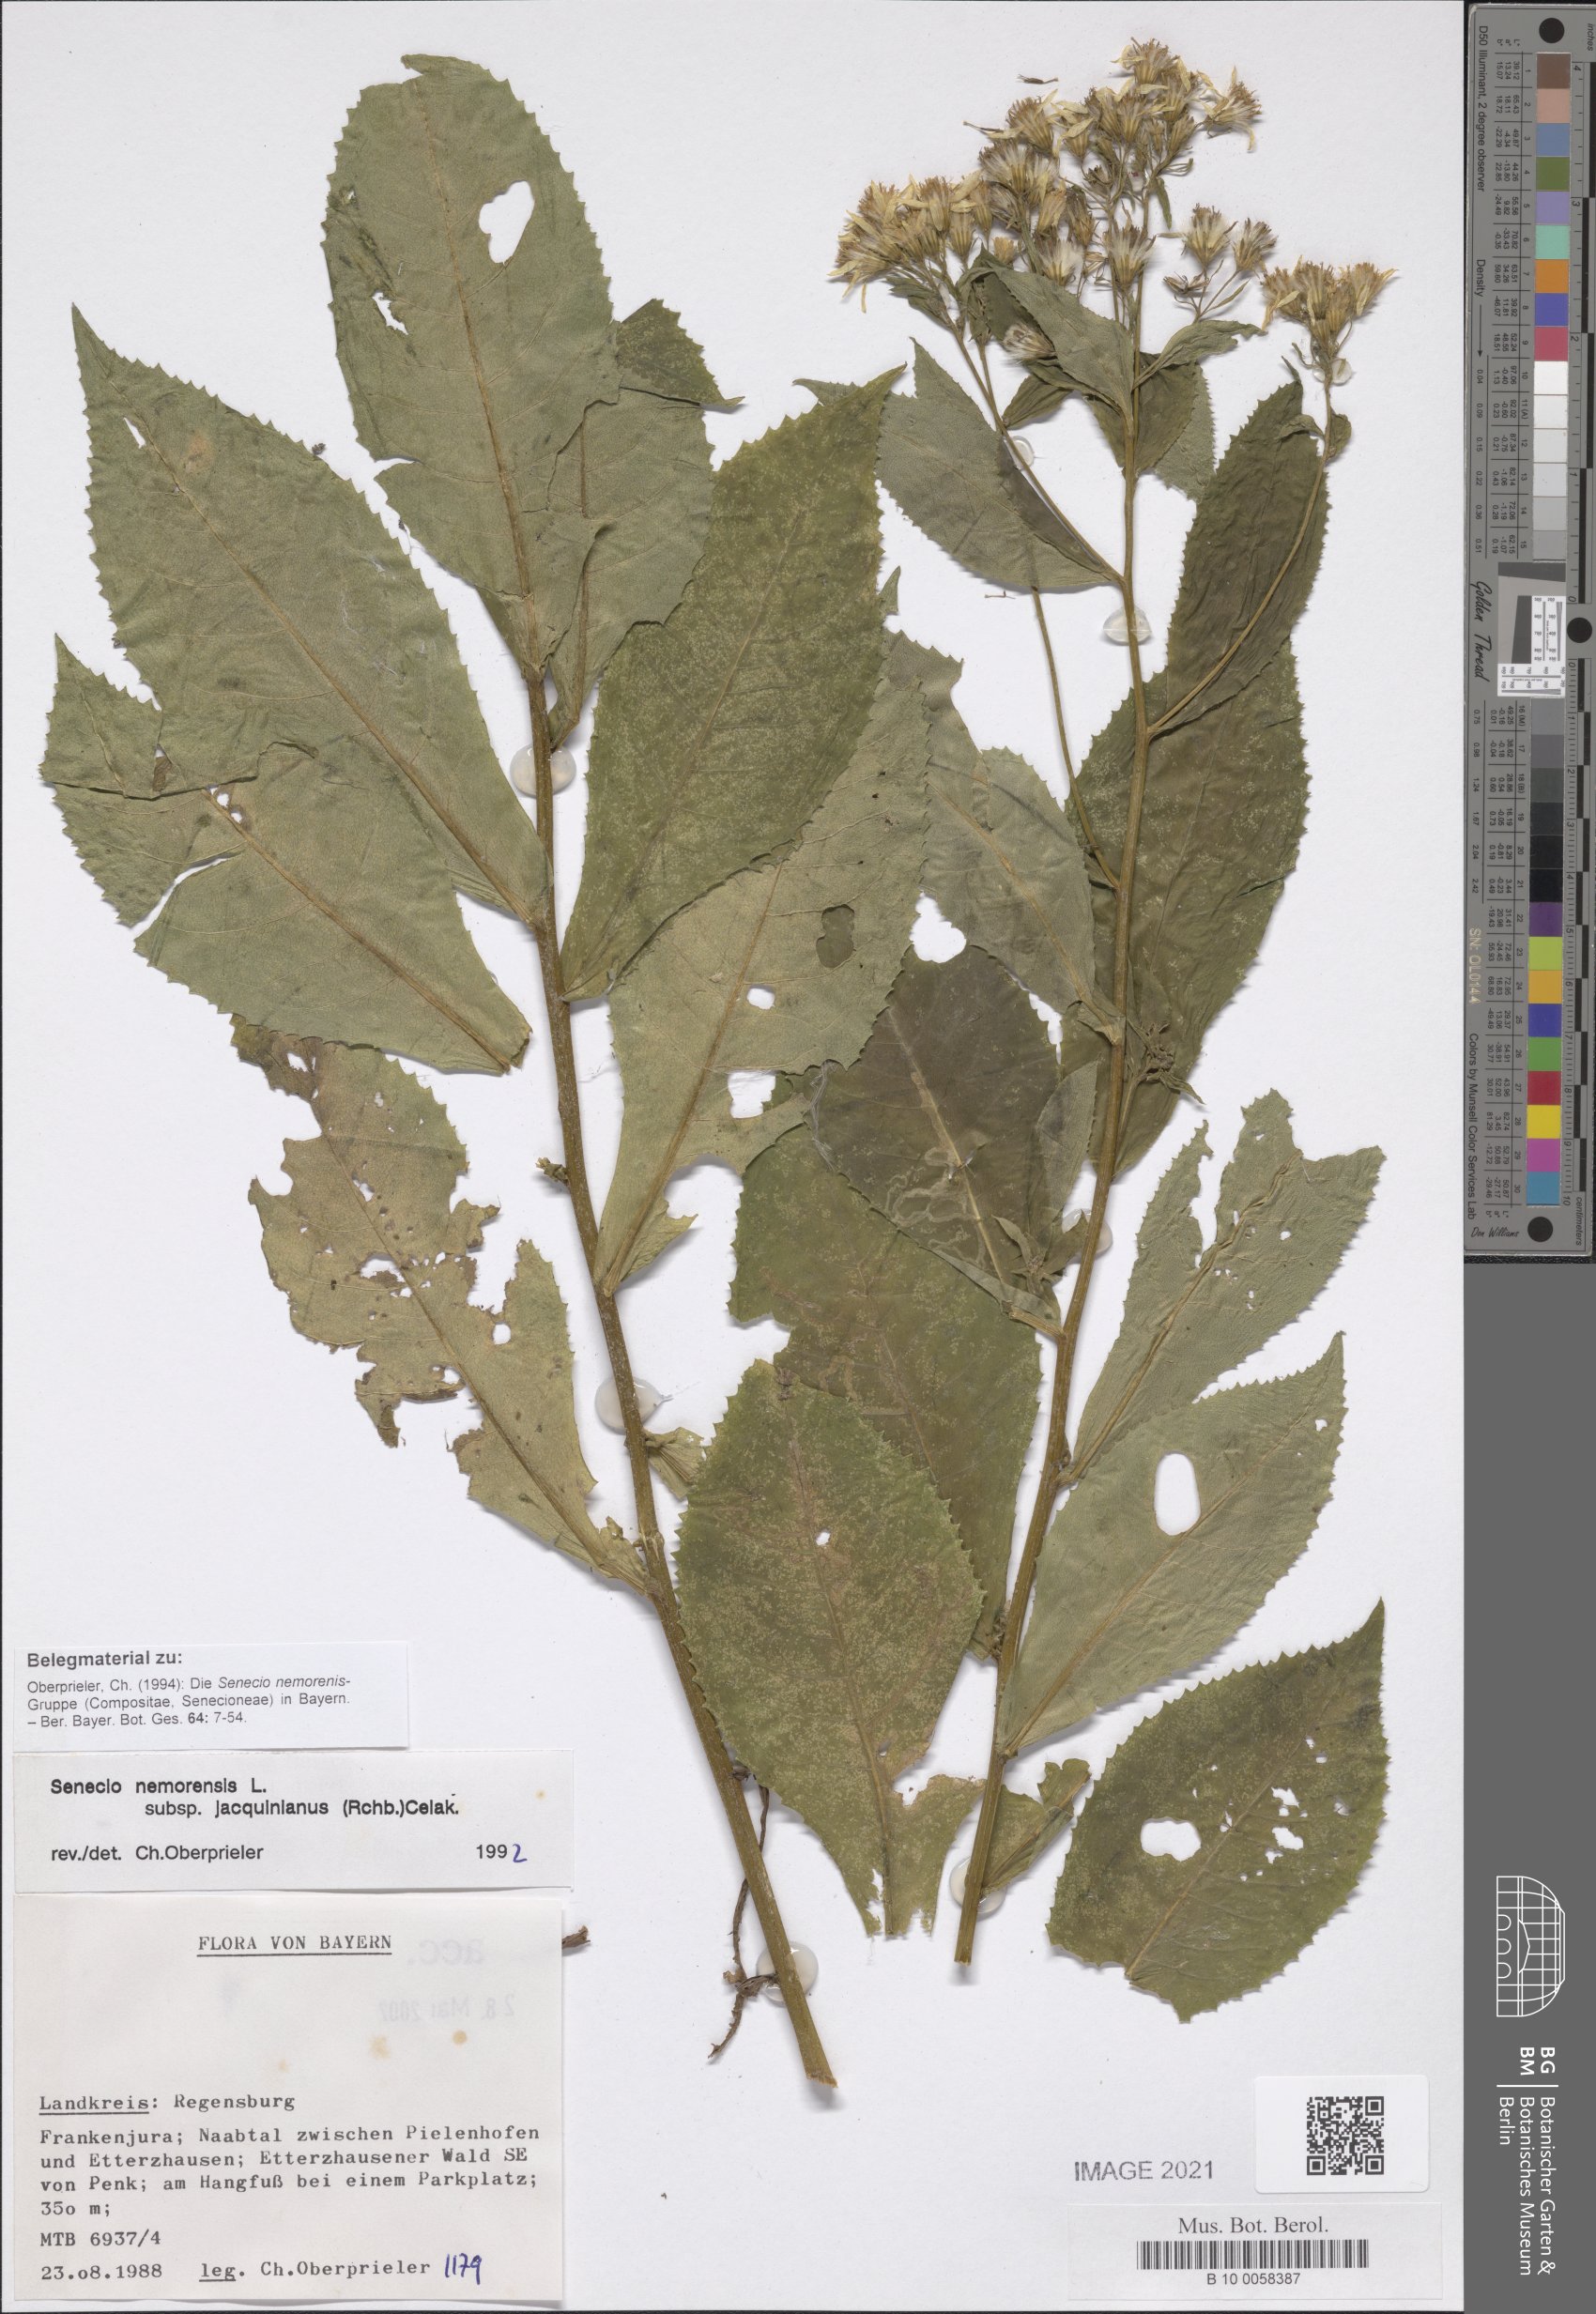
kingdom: Plantae
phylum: Tracheophyta
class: Magnoliopsida
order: Asterales
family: Asteraceae
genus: Senecio
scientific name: Senecio germanicus
